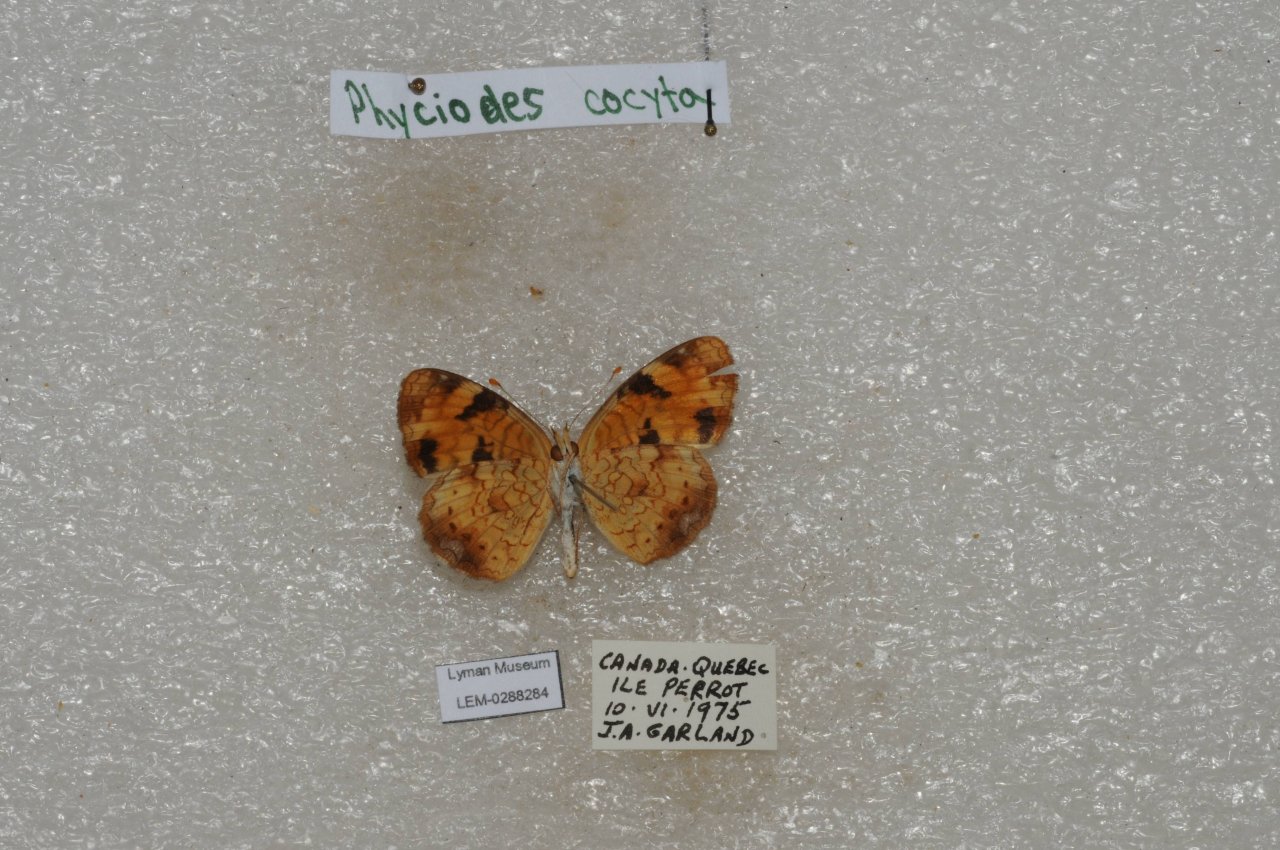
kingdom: Animalia
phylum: Arthropoda
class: Insecta
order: Lepidoptera
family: Nymphalidae
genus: Phyciodes
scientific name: Phyciodes tharos
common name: Northern Crescent
